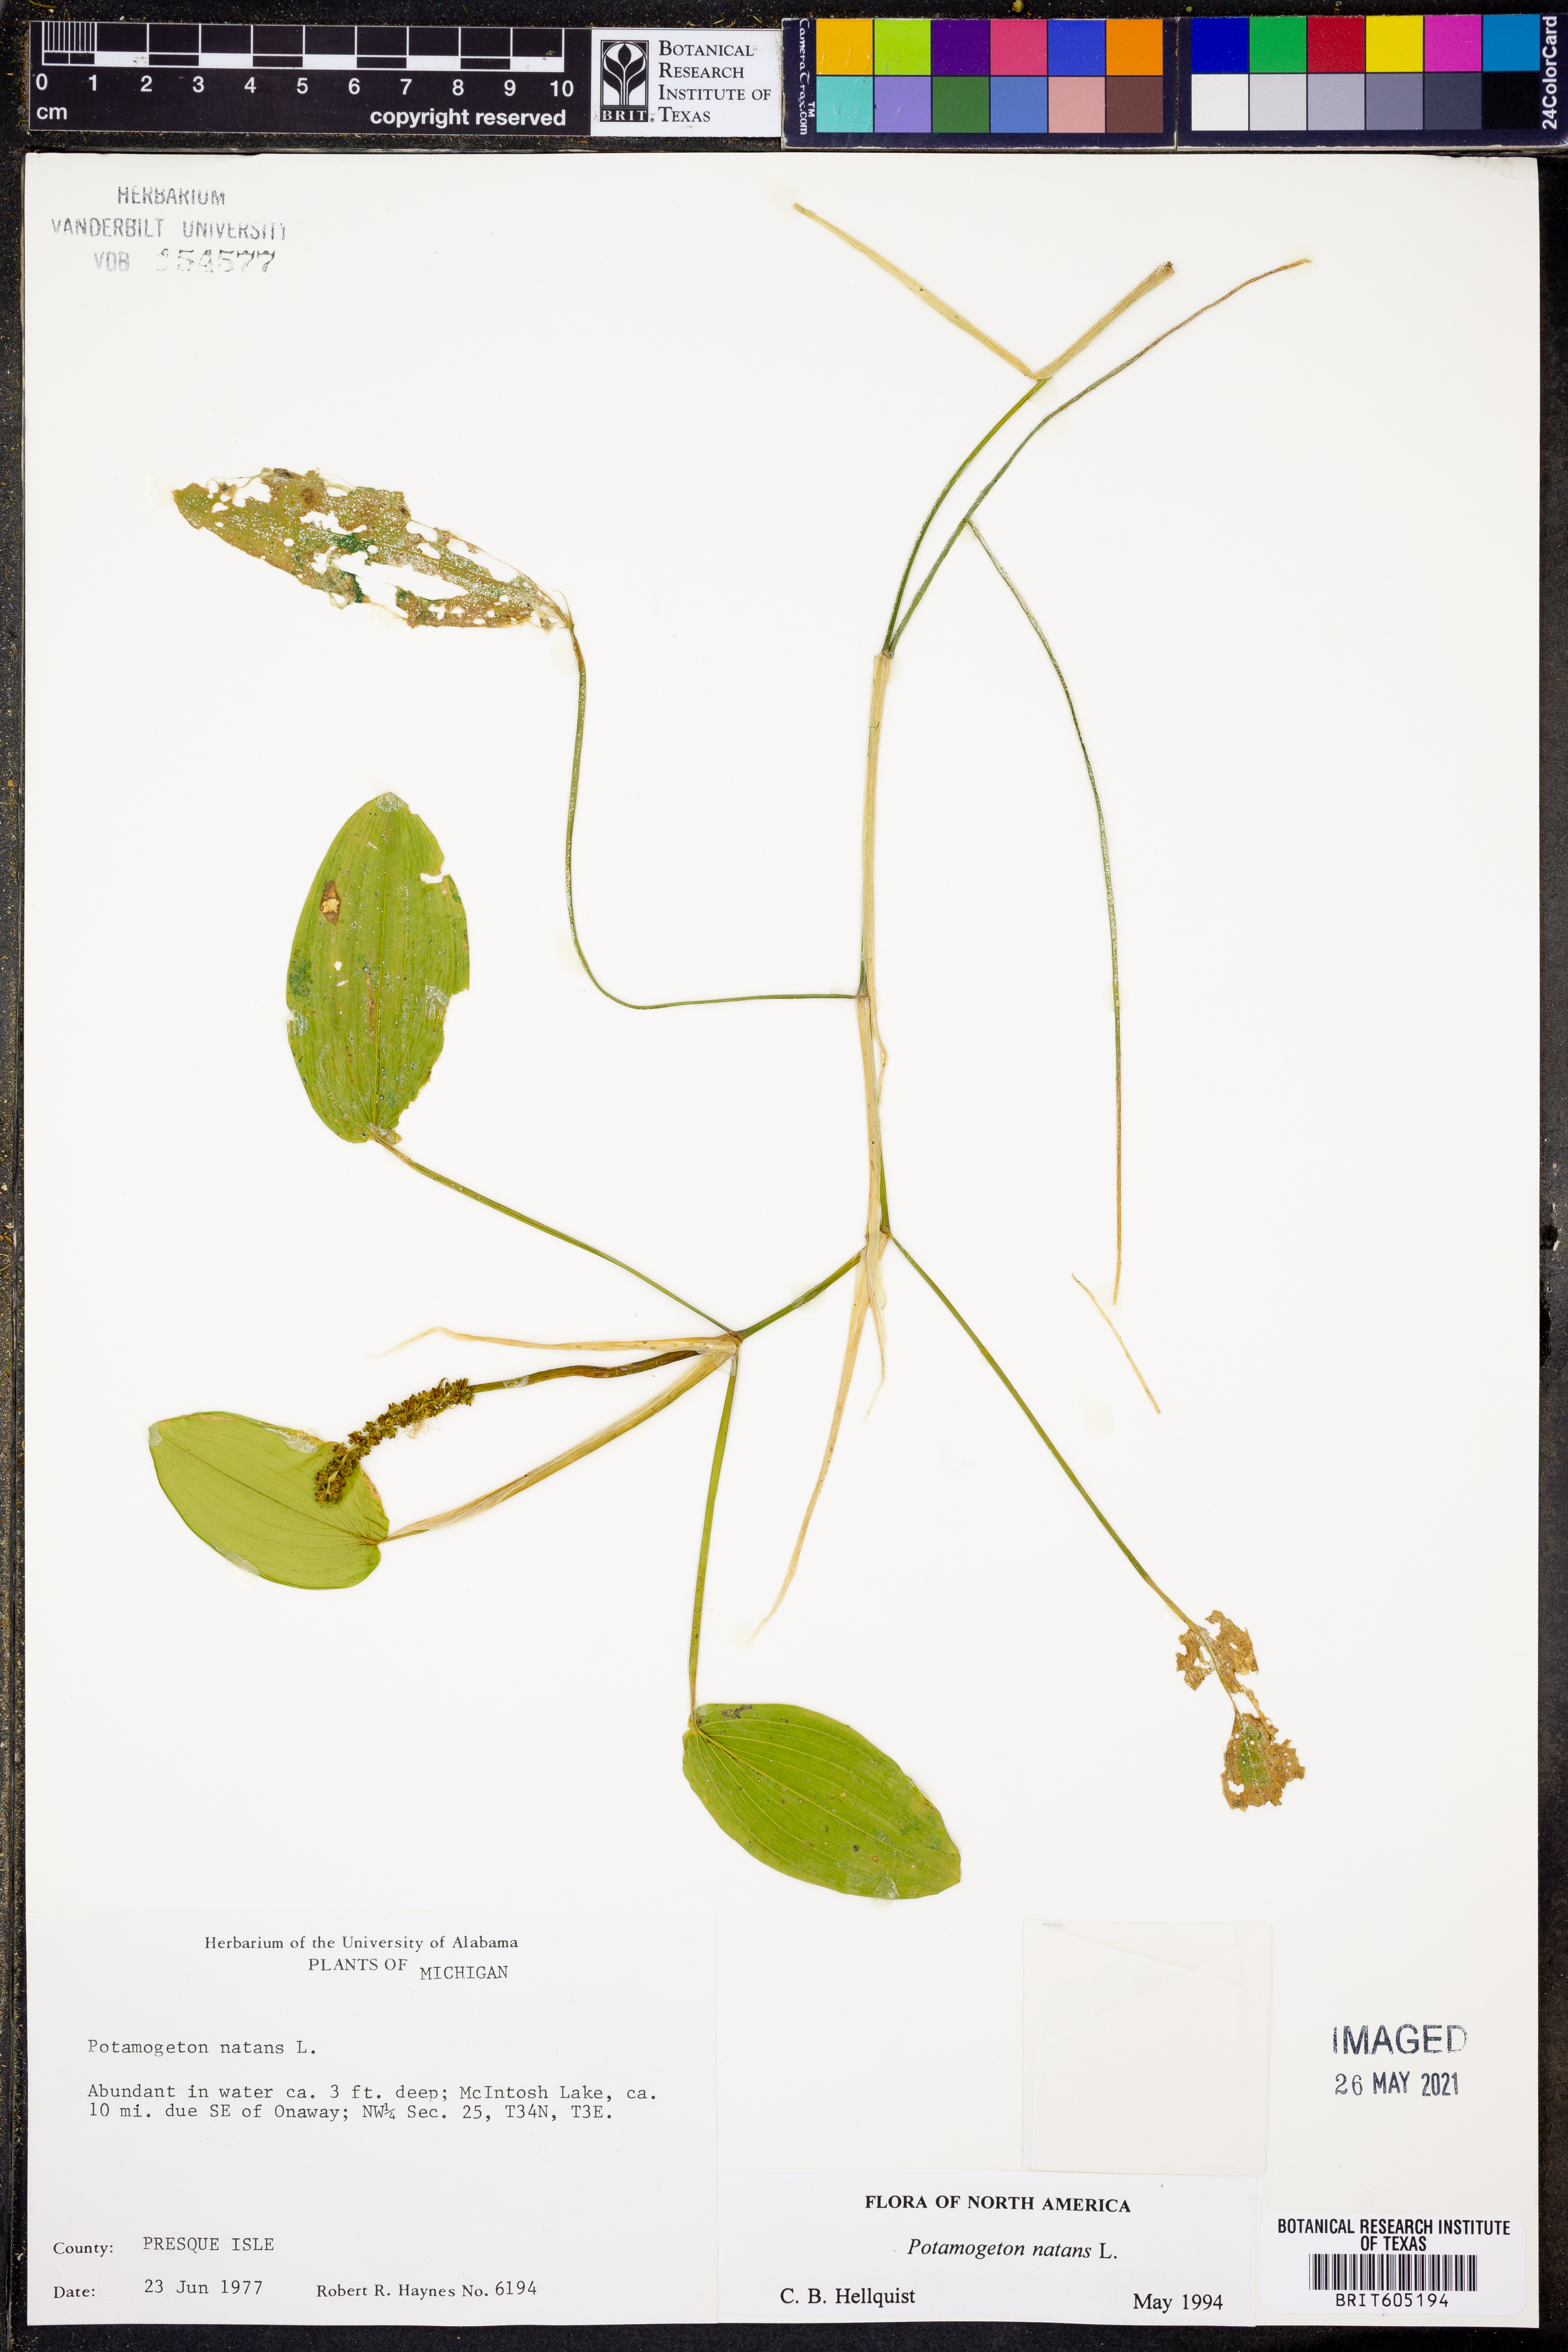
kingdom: Plantae
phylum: Tracheophyta
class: Liliopsida
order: Alismatales
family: Potamogetonaceae
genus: Potamogeton
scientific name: Potamogeton natans
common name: Broad-leaved pondweed
